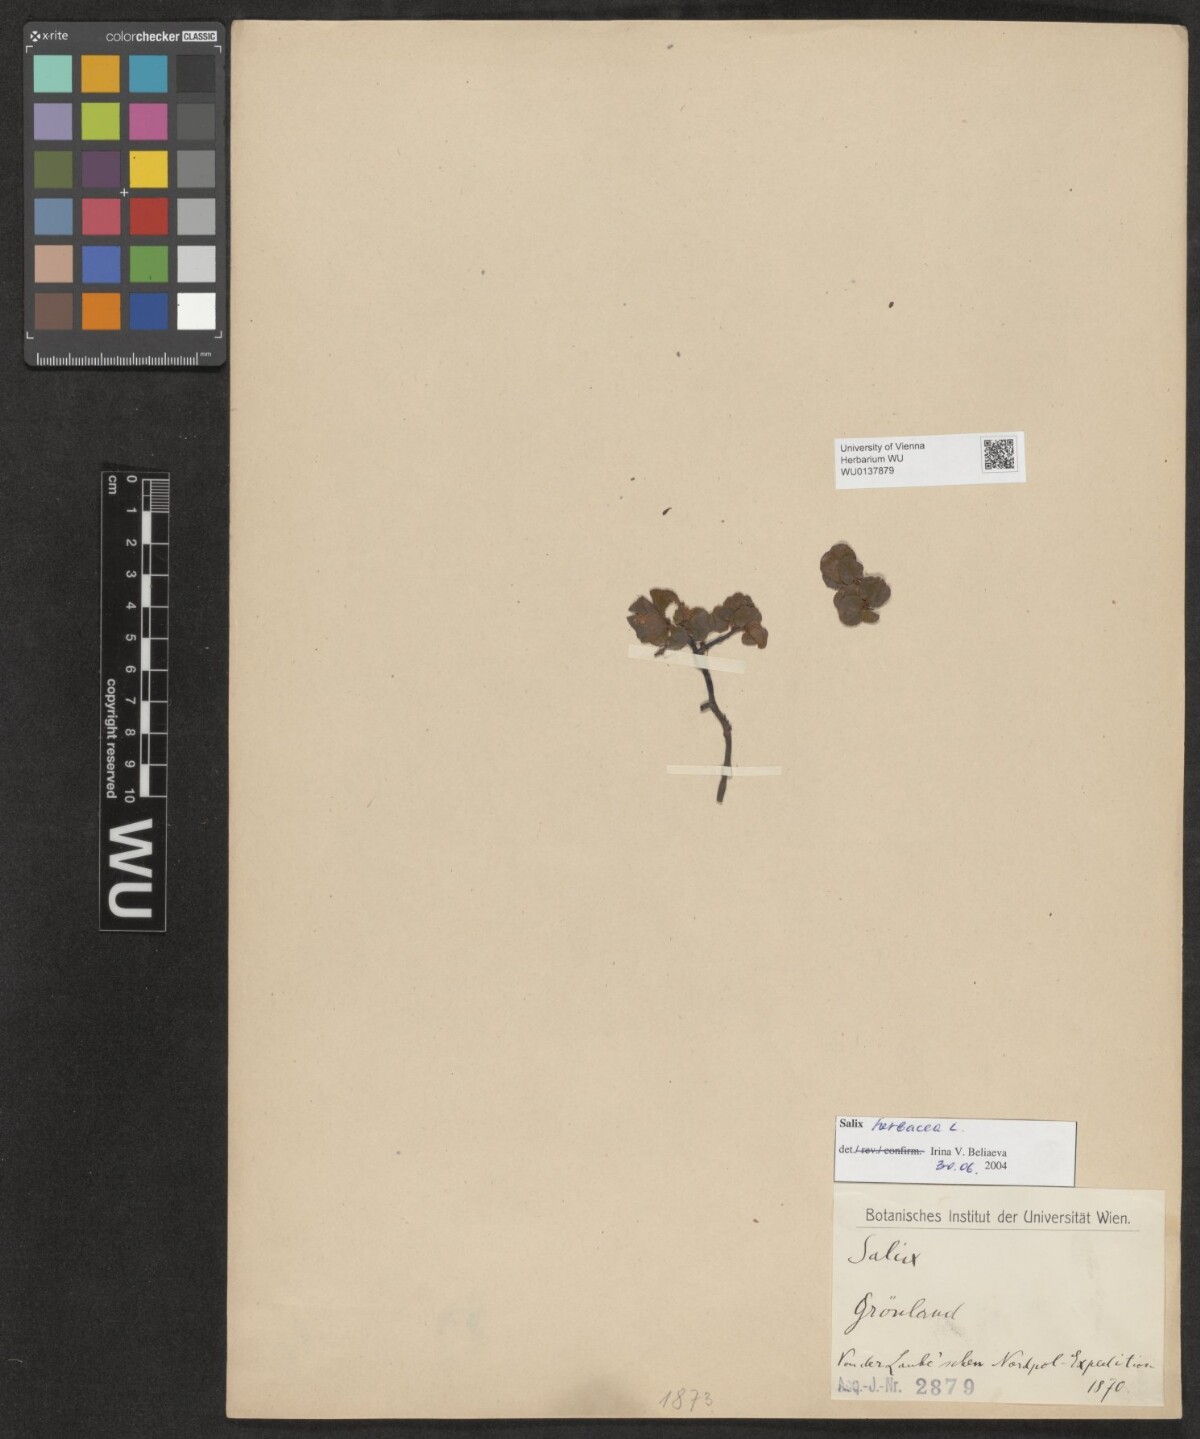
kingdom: Plantae
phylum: Tracheophyta
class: Magnoliopsida
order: Malpighiales
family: Salicaceae
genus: Salix
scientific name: Salix herbacea
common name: Dwarf willow
